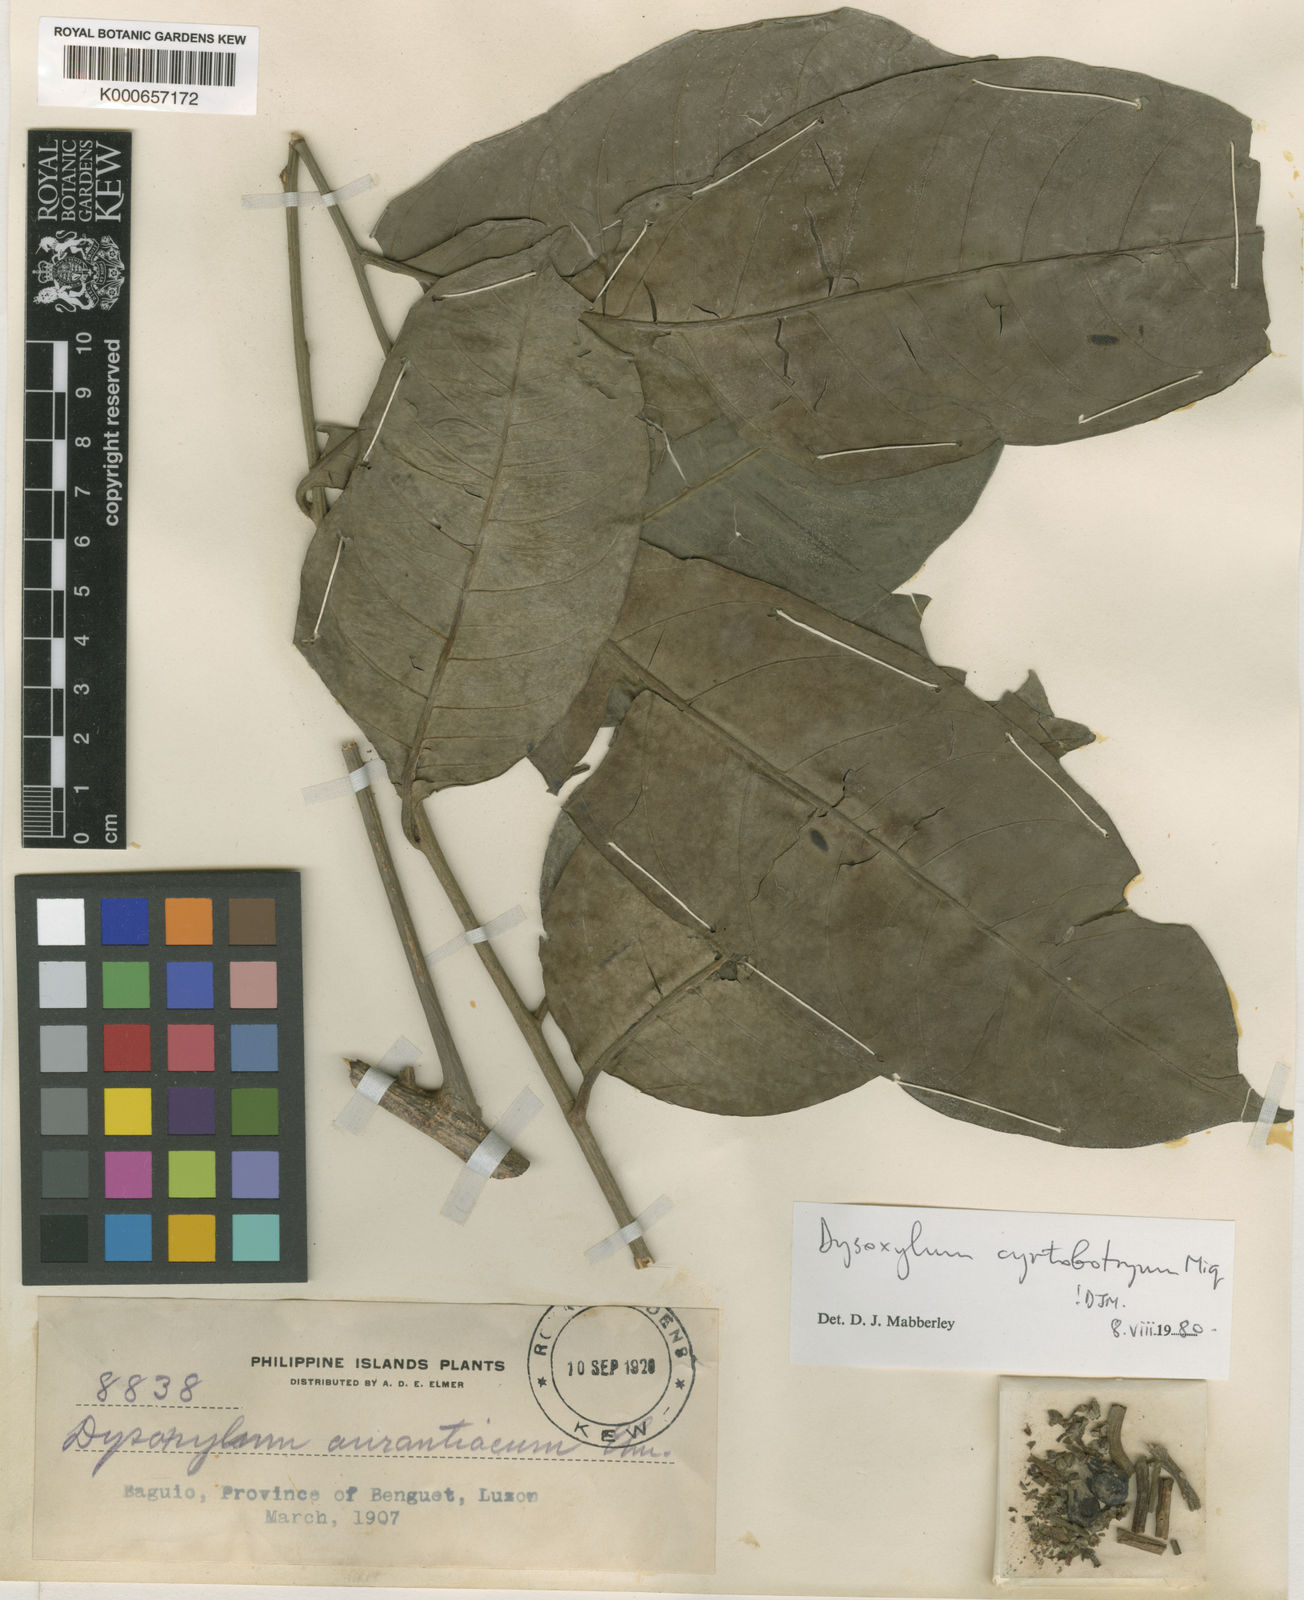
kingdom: Plantae
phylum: Tracheophyta
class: Magnoliopsida
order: Sapindales
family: Meliaceae
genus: Dysoxylum
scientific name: Dysoxylum cyrtobotryum
